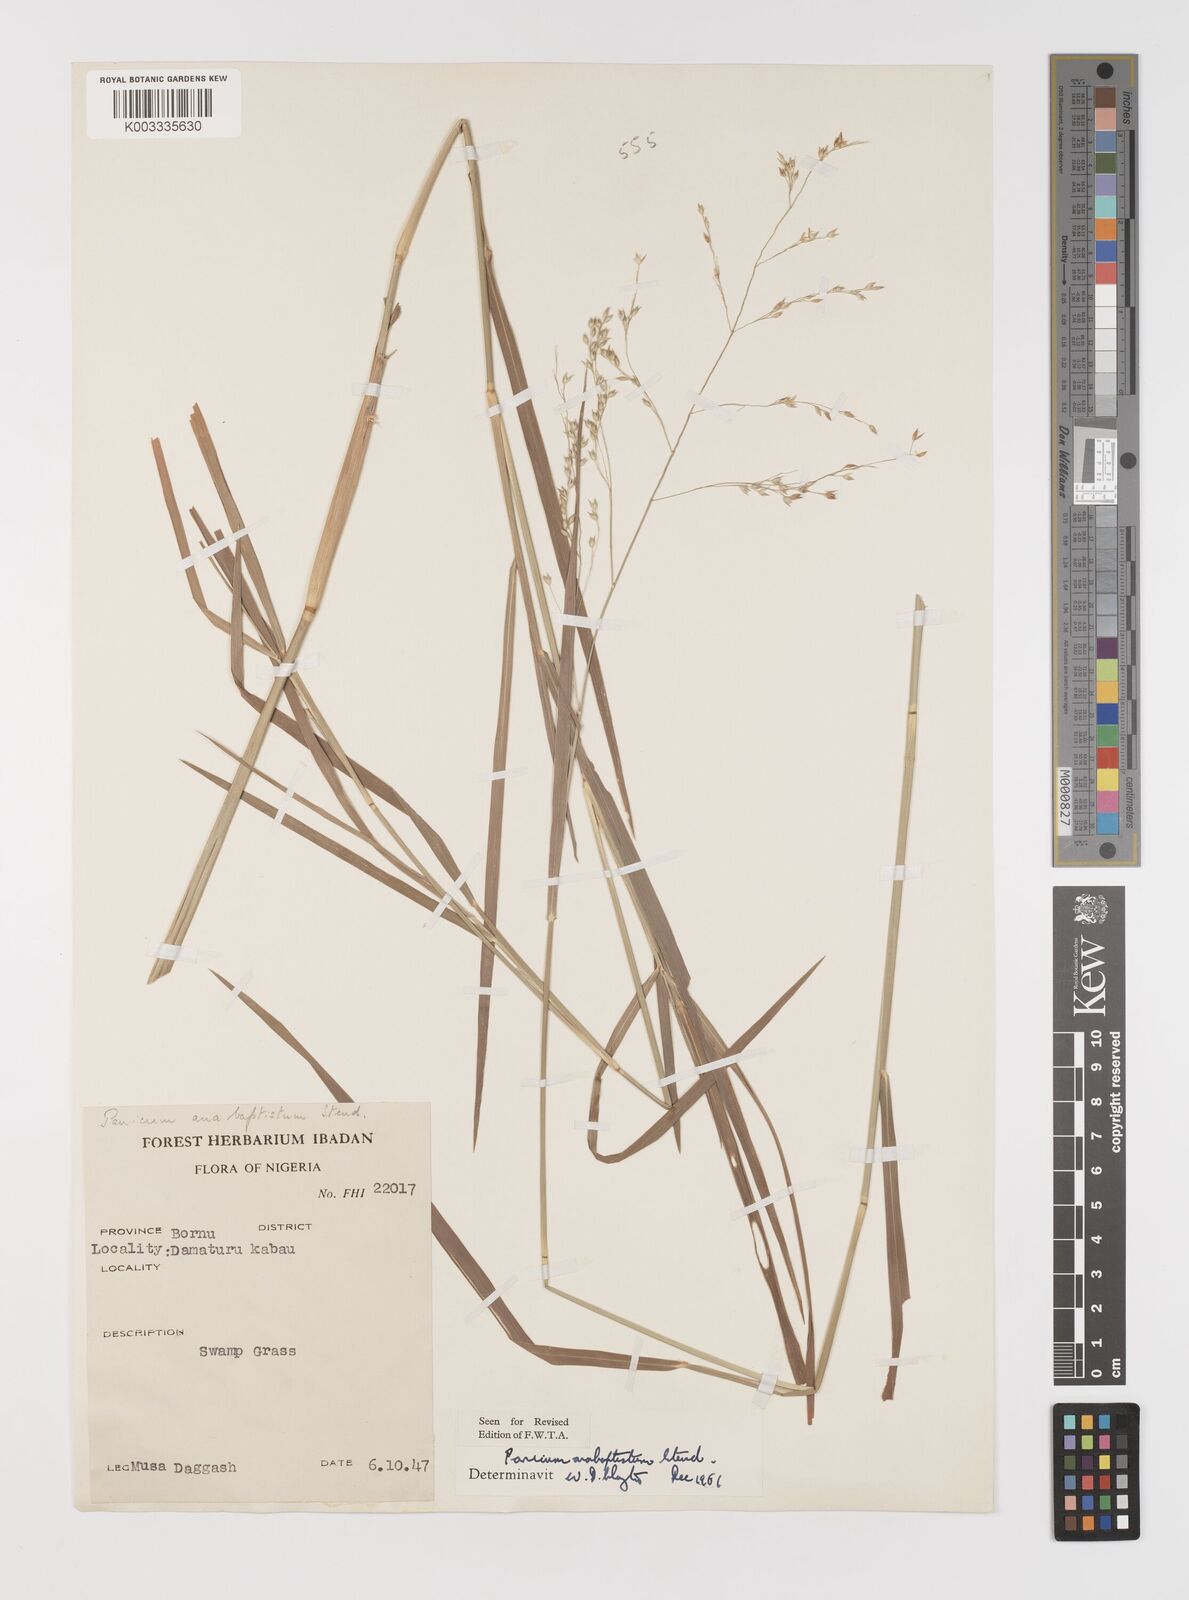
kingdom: Plantae
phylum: Tracheophyta
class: Liliopsida
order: Poales
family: Poaceae
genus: Panicum
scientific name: Panicum anabaptistum
